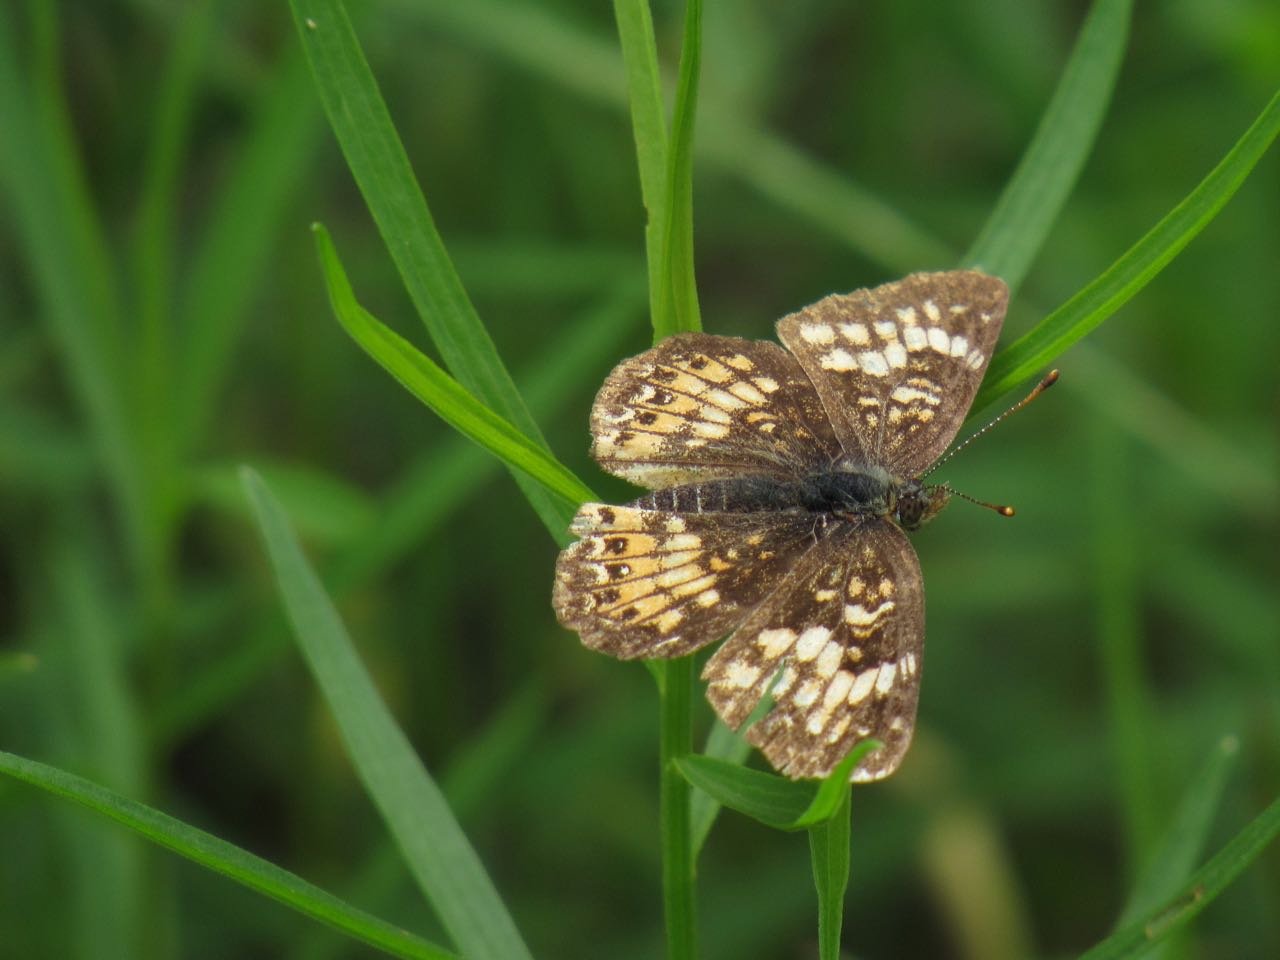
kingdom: Animalia
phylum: Arthropoda
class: Insecta
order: Lepidoptera
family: Nymphalidae
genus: Chlosyne
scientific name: Chlosyne harrisii
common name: Harris's Checkerspot
